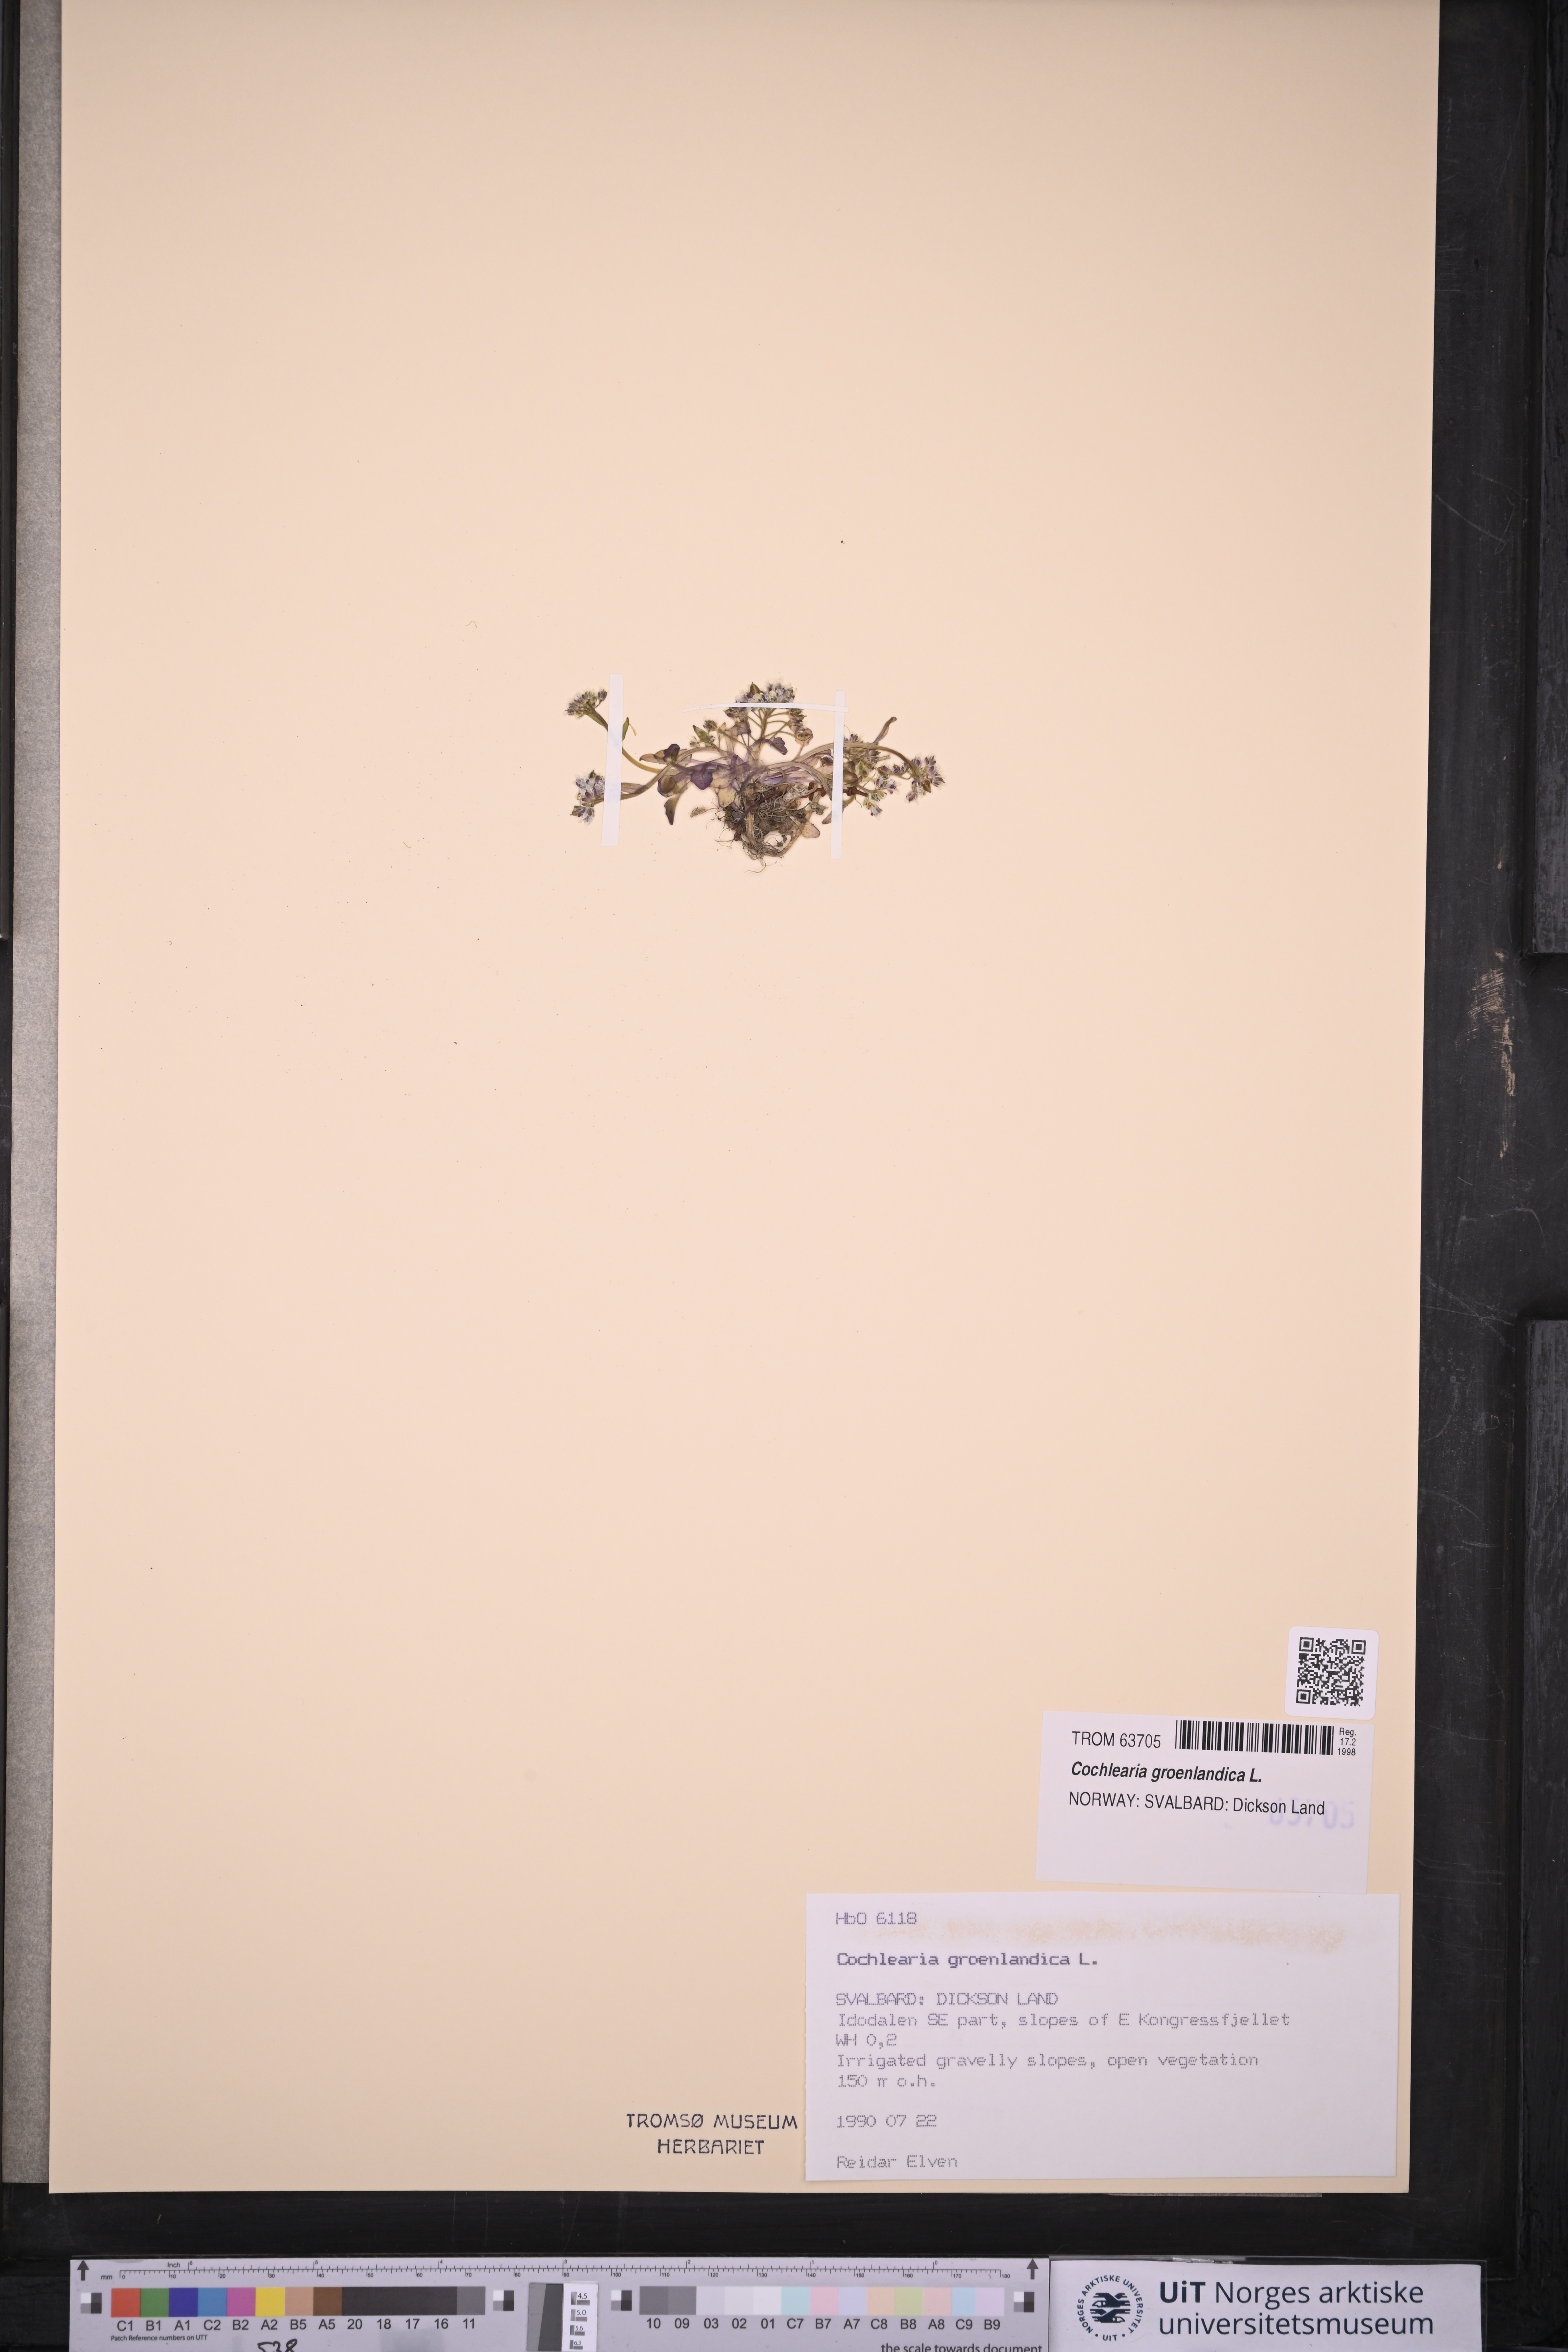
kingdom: Plantae
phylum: Tracheophyta
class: Magnoliopsida
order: Brassicales
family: Brassicaceae
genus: Cochlearia
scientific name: Cochlearia groenlandica
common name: Danish scurvygrass
